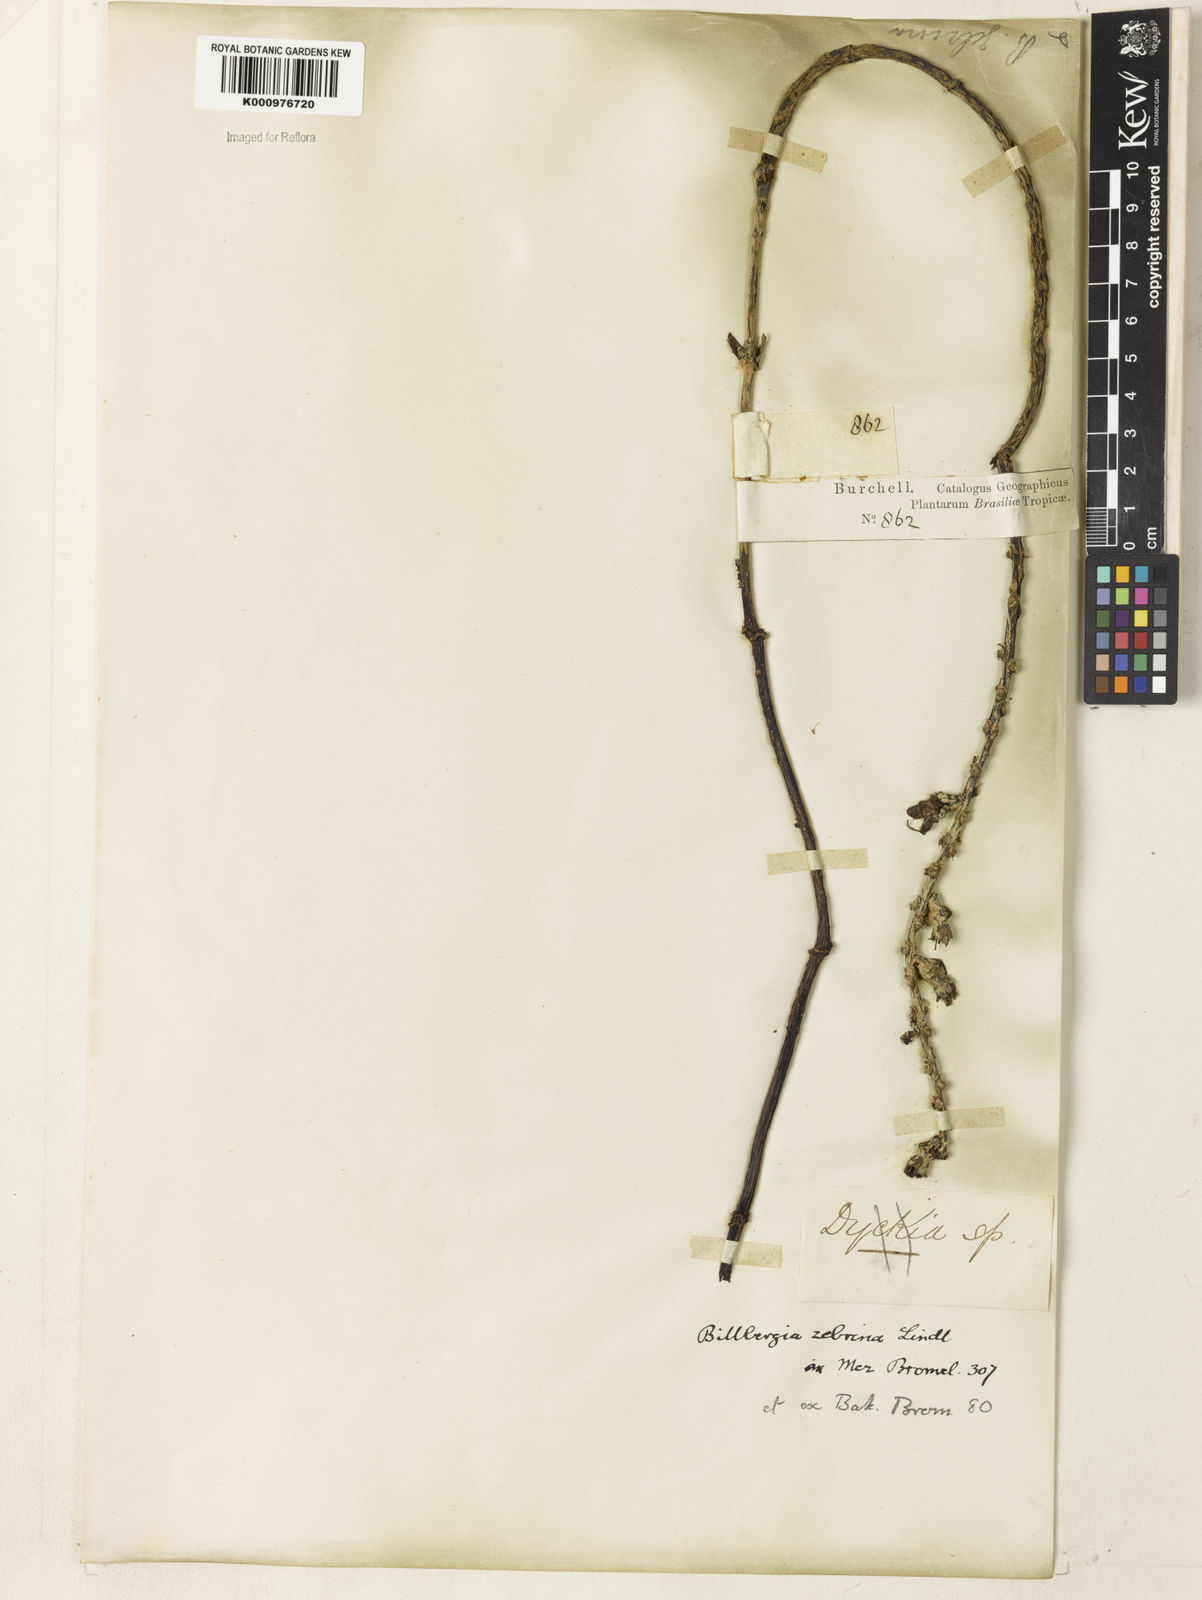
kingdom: Plantae
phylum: Tracheophyta
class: Liliopsida
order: Poales
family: Bromeliaceae
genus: Billbergia
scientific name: Billbergia zebrina
